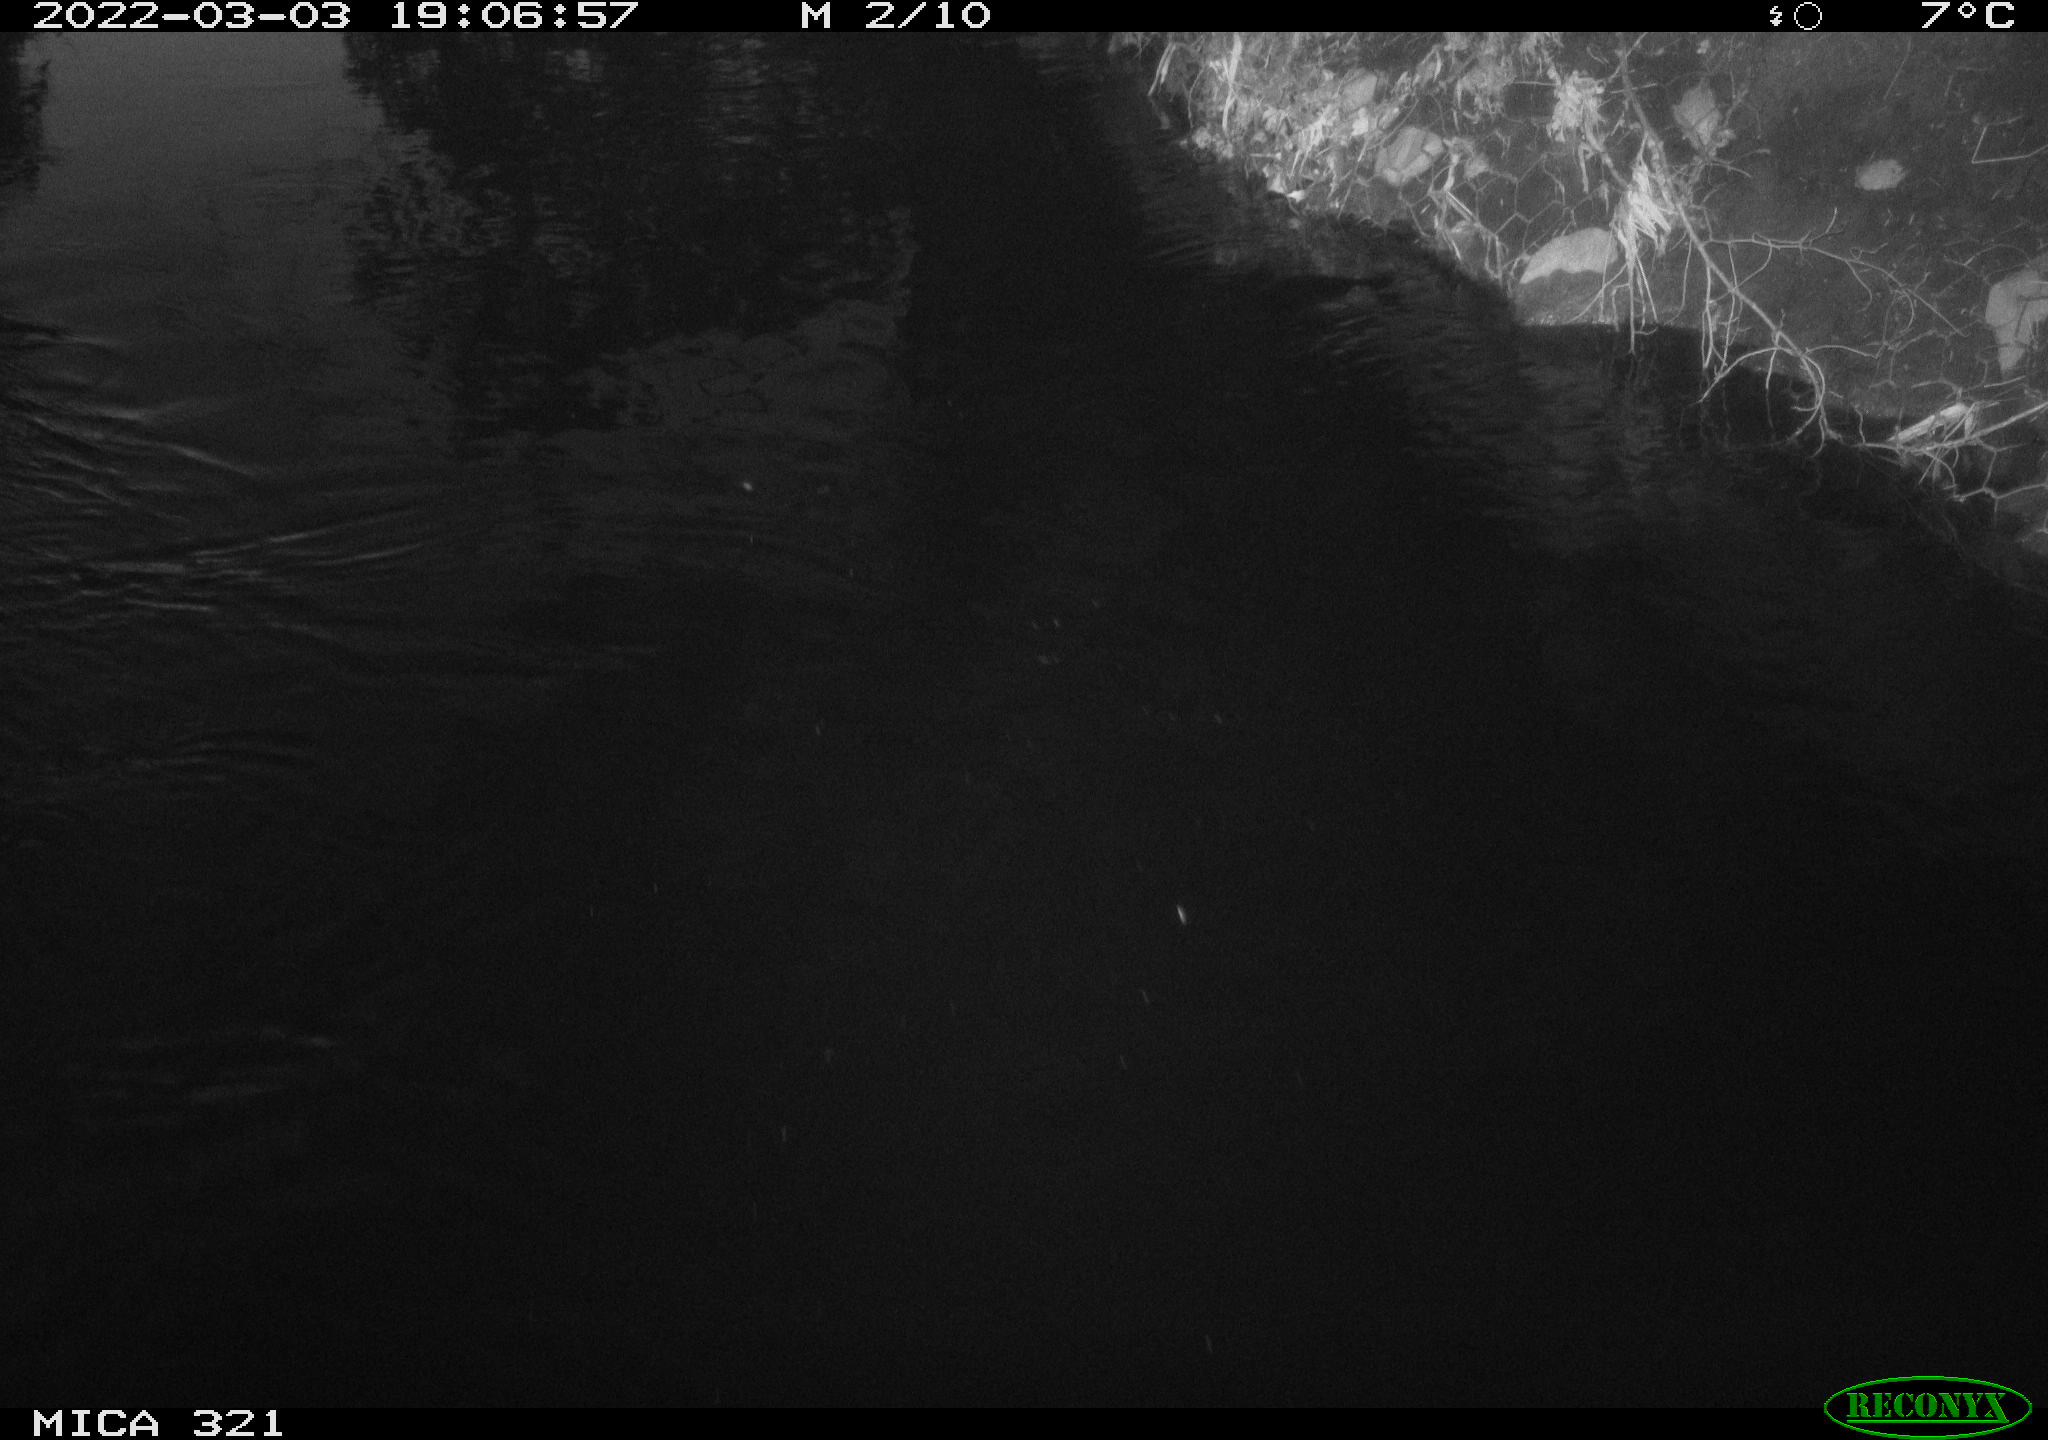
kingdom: Animalia
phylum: Chordata
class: Aves
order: Anseriformes
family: Anatidae
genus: Anas
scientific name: Anas platyrhynchos
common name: Mallard
